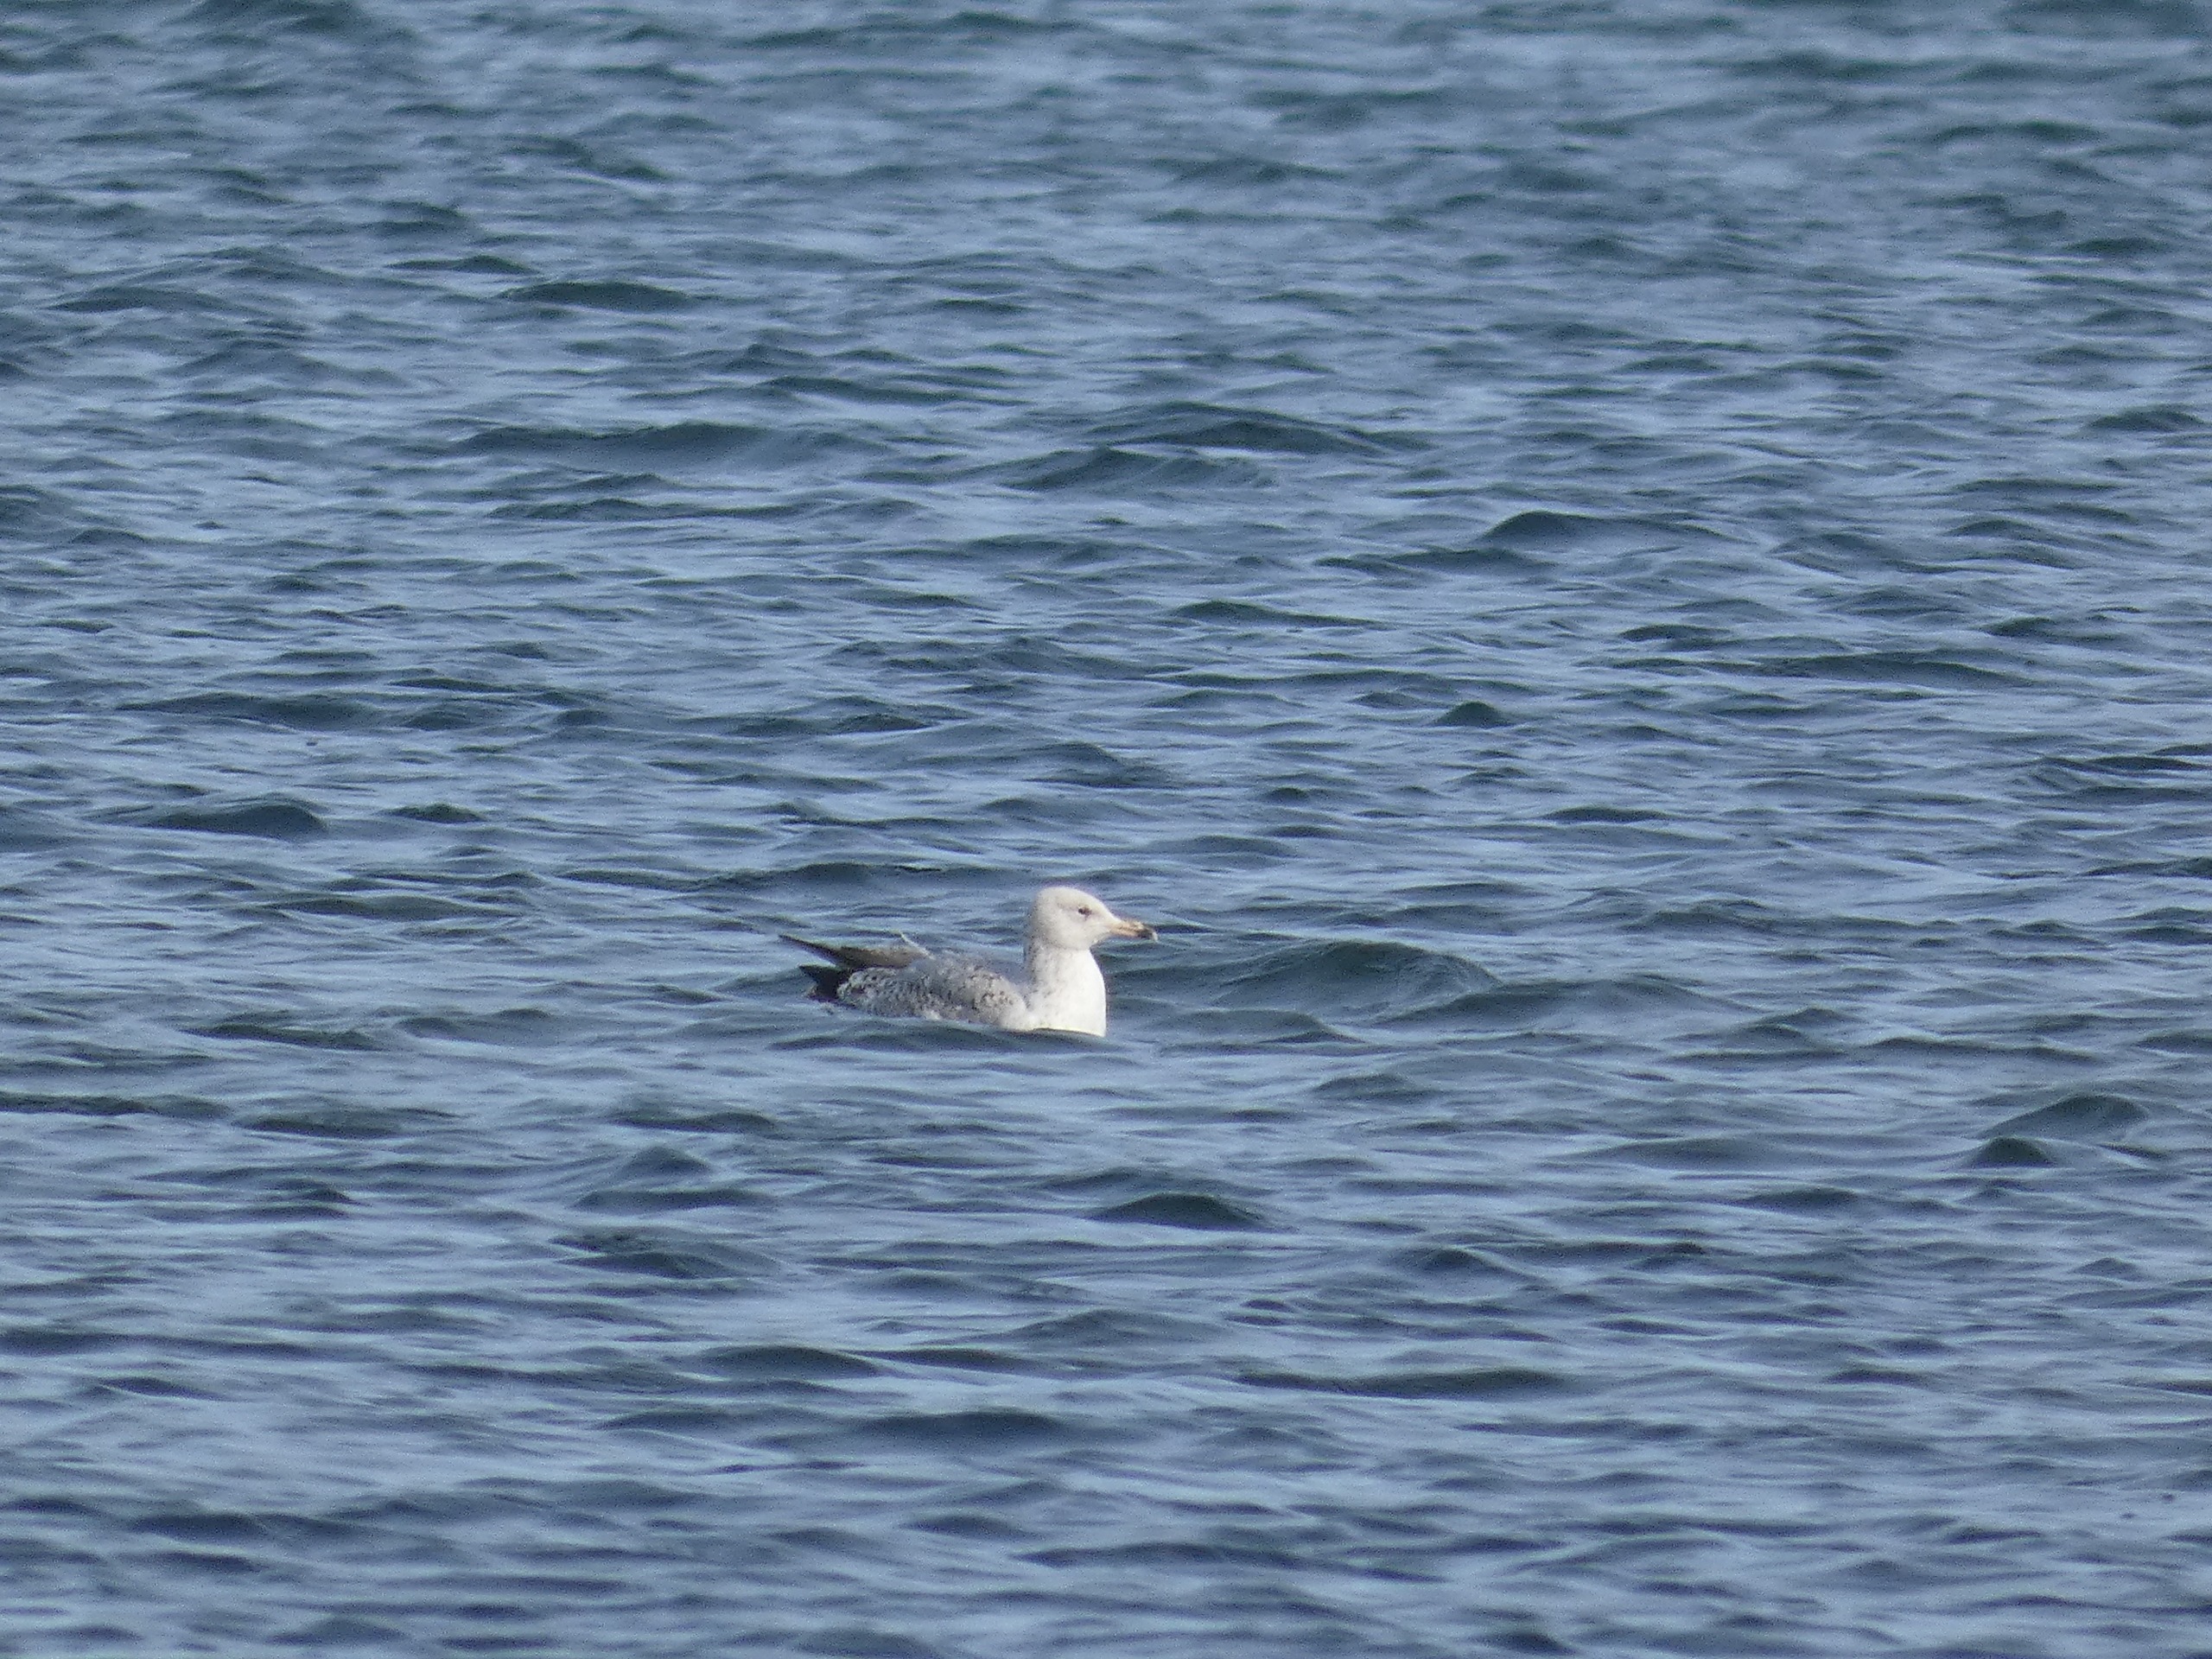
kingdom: Animalia
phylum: Chordata
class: Aves
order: Charadriiformes
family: Laridae
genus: Larus
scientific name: Larus argentatus
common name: Sølvmåge
